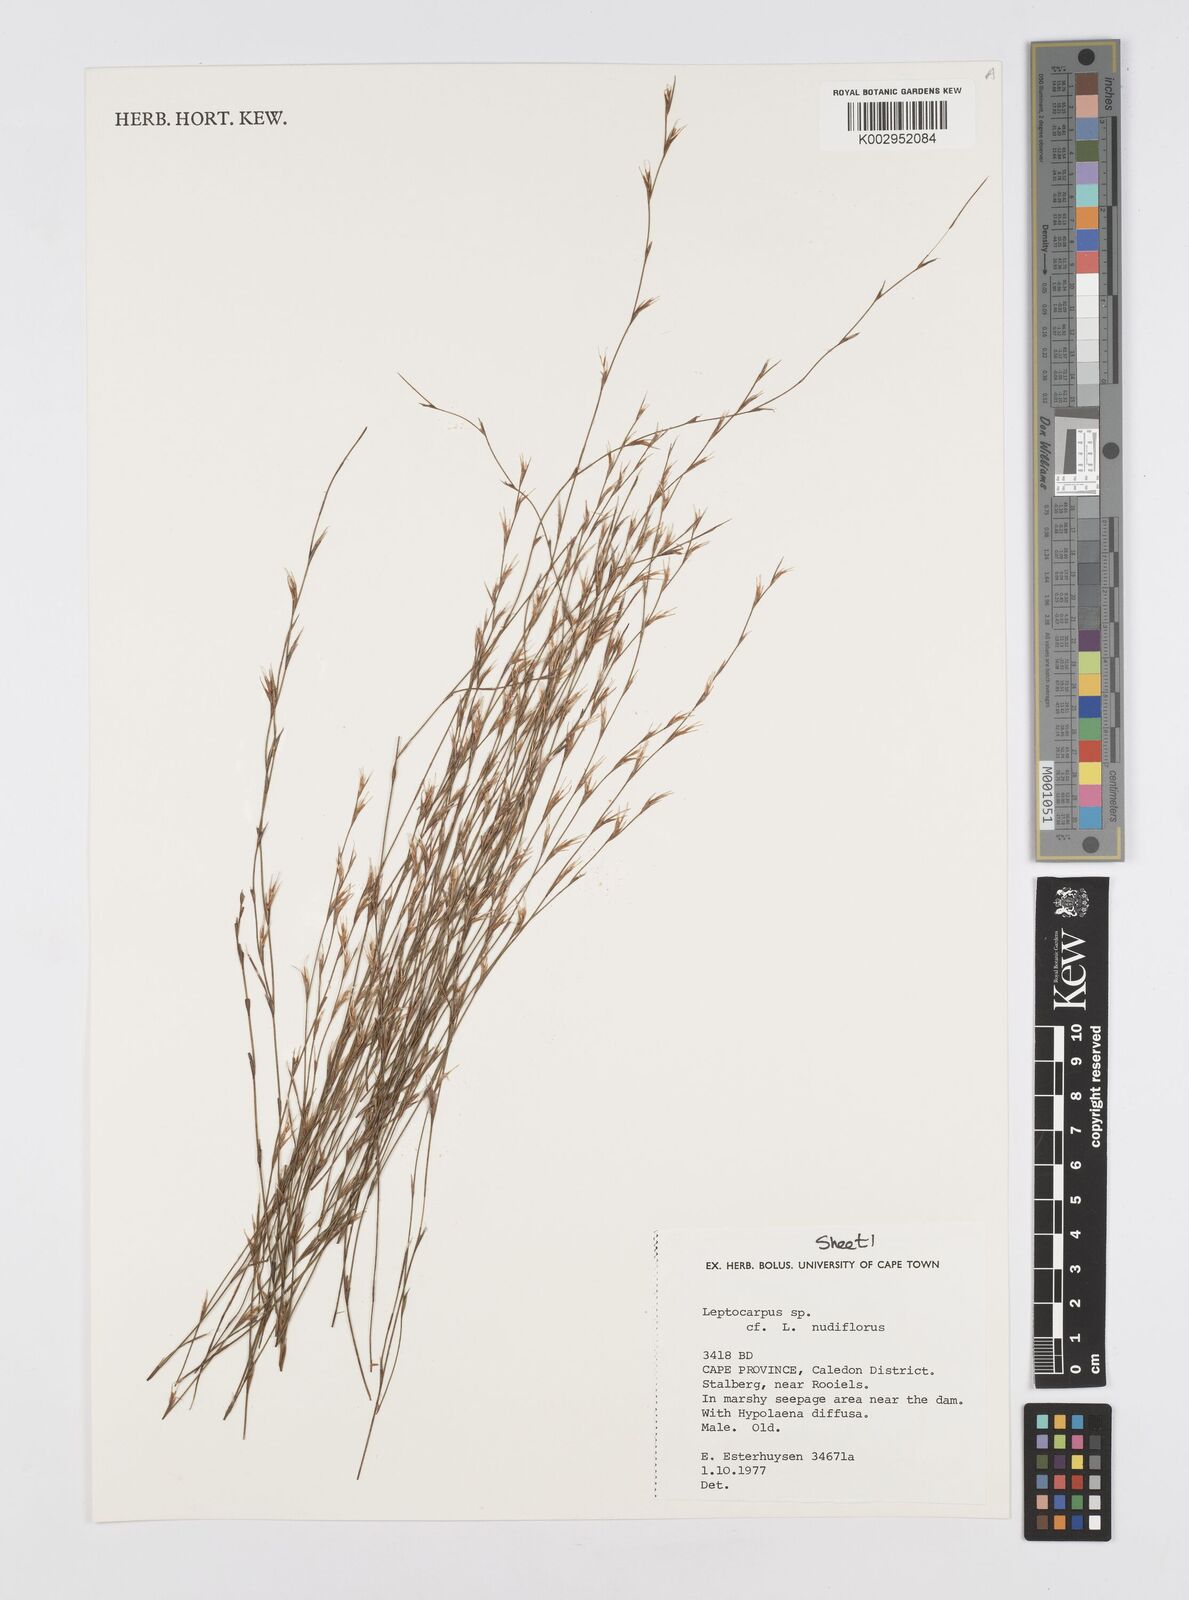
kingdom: Plantae
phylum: Tracheophyta
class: Liliopsida
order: Poales
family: Restionaceae
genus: Restio
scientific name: Restio nudiflorus
